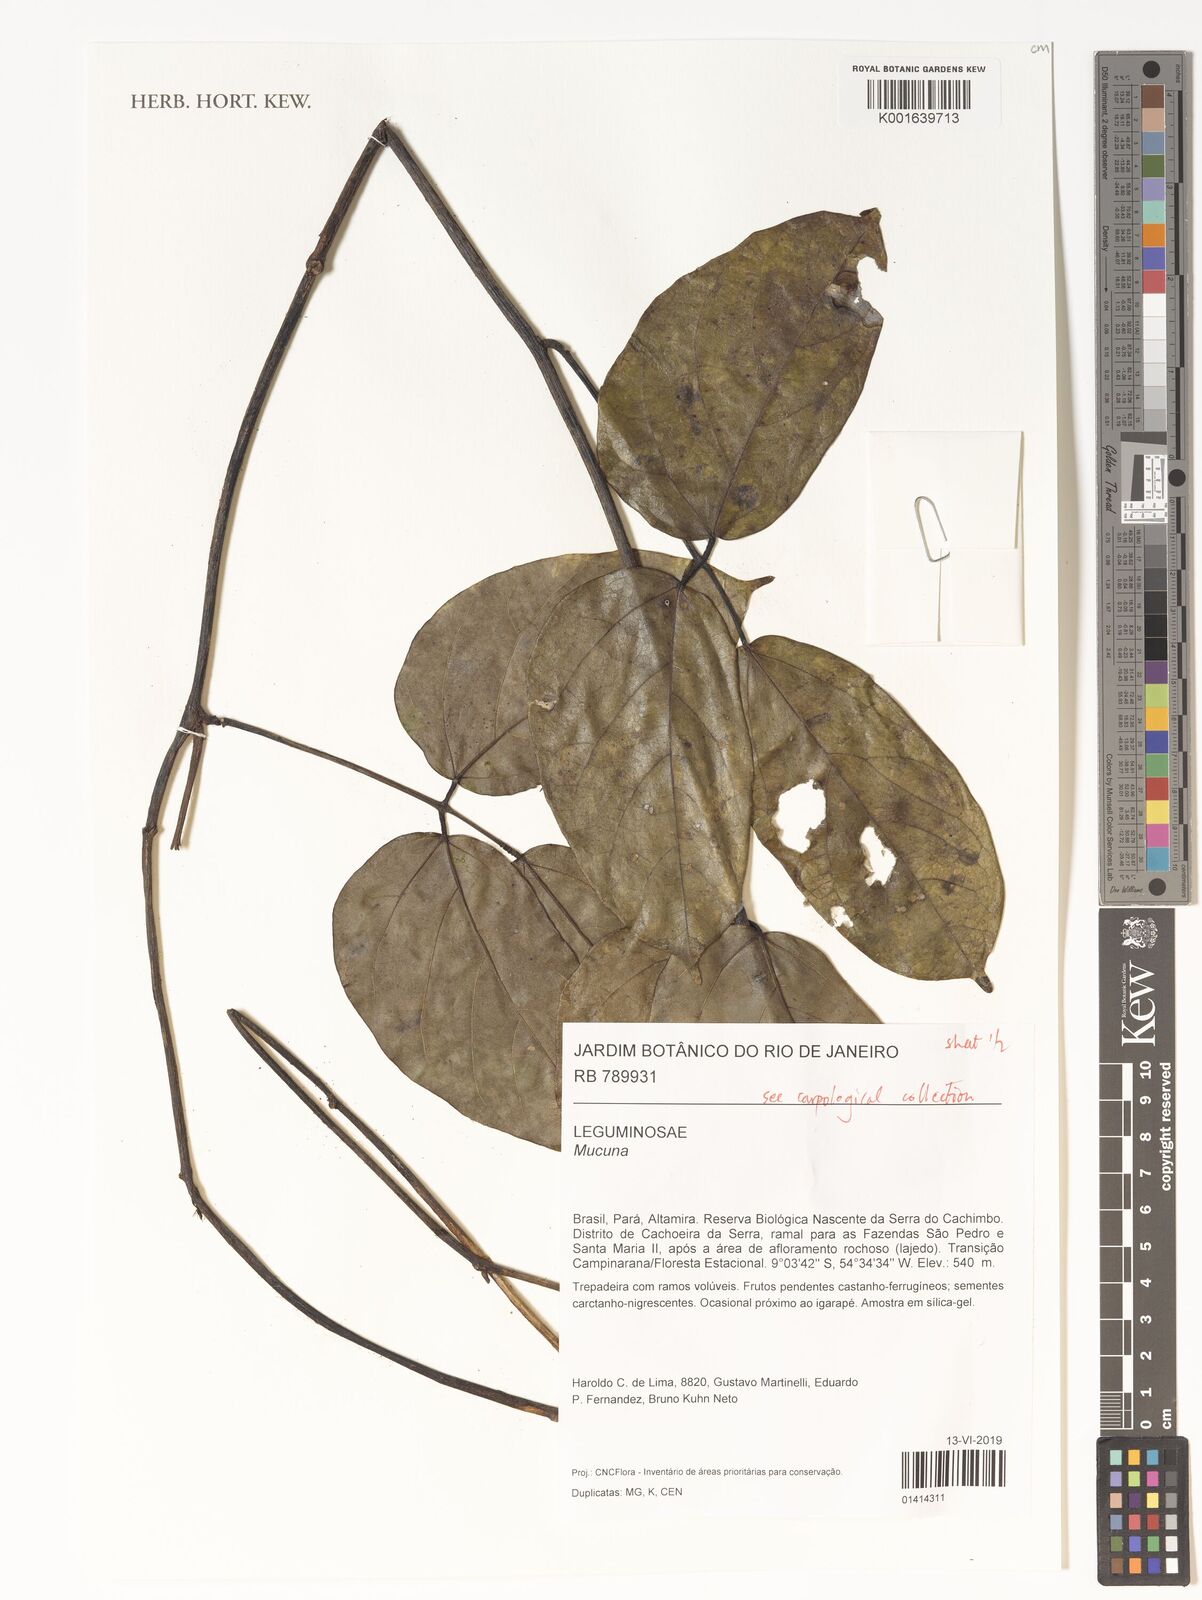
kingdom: Plantae
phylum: Tracheophyta
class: Magnoliopsida
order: Fabales
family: Fabaceae
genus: Mucuna
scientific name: Mucuna
